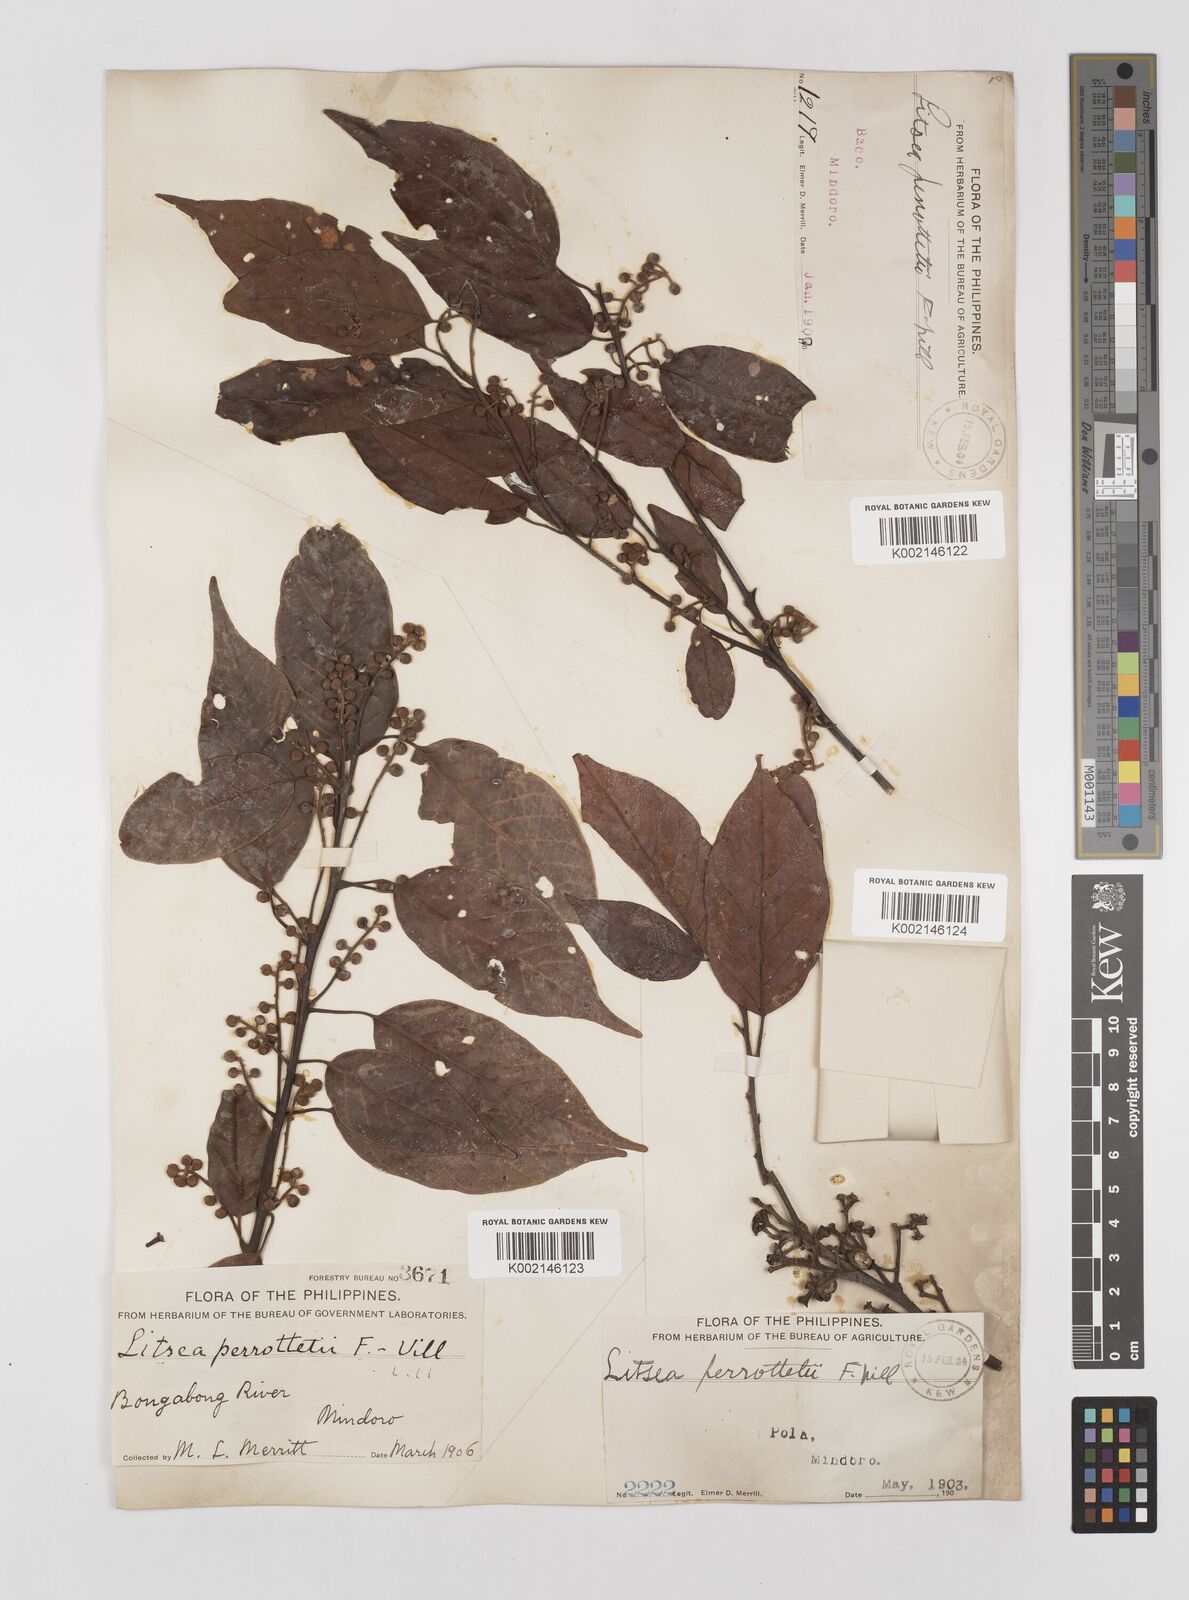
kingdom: Plantae
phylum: Tracheophyta
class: Magnoliopsida
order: Laurales
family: Lauraceae
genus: Litsea
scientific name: Litsea cordata
